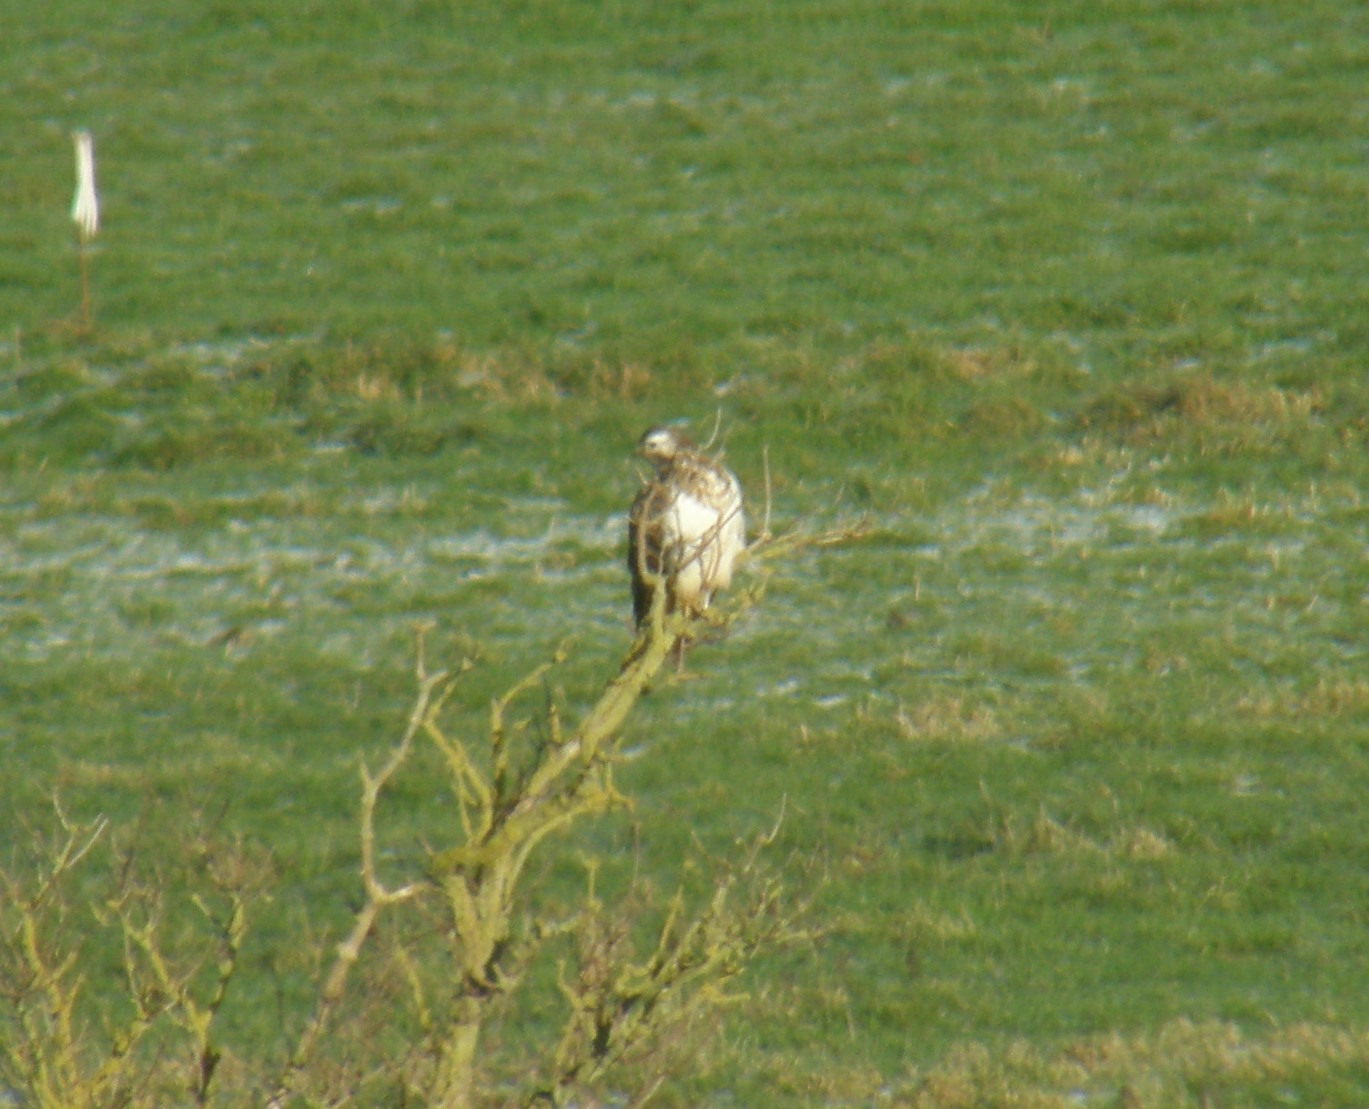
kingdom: Animalia
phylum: Chordata
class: Aves
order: Accipitriformes
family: Accipitridae
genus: Buteo
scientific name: Buteo buteo
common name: Musvåge
